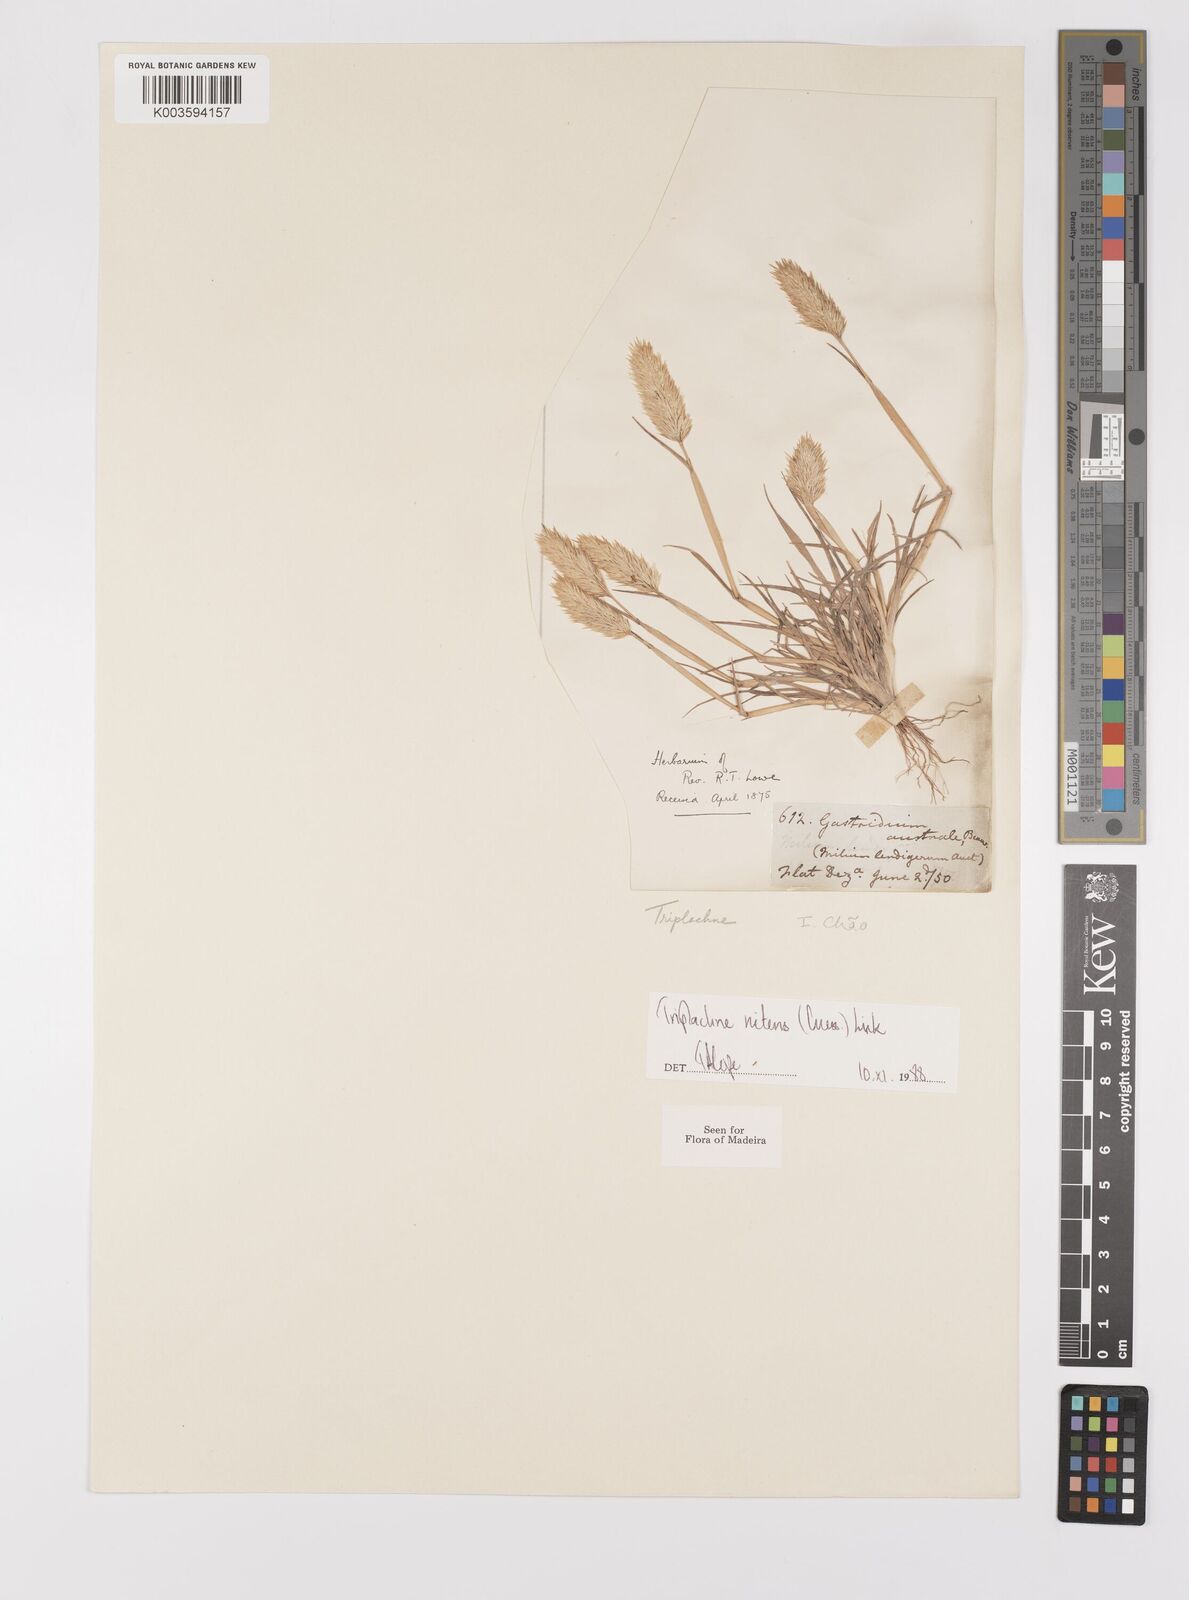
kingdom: Plantae
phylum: Tracheophyta
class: Liliopsida
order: Poales
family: Poaceae
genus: Triplachne
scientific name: Triplachne nitens
